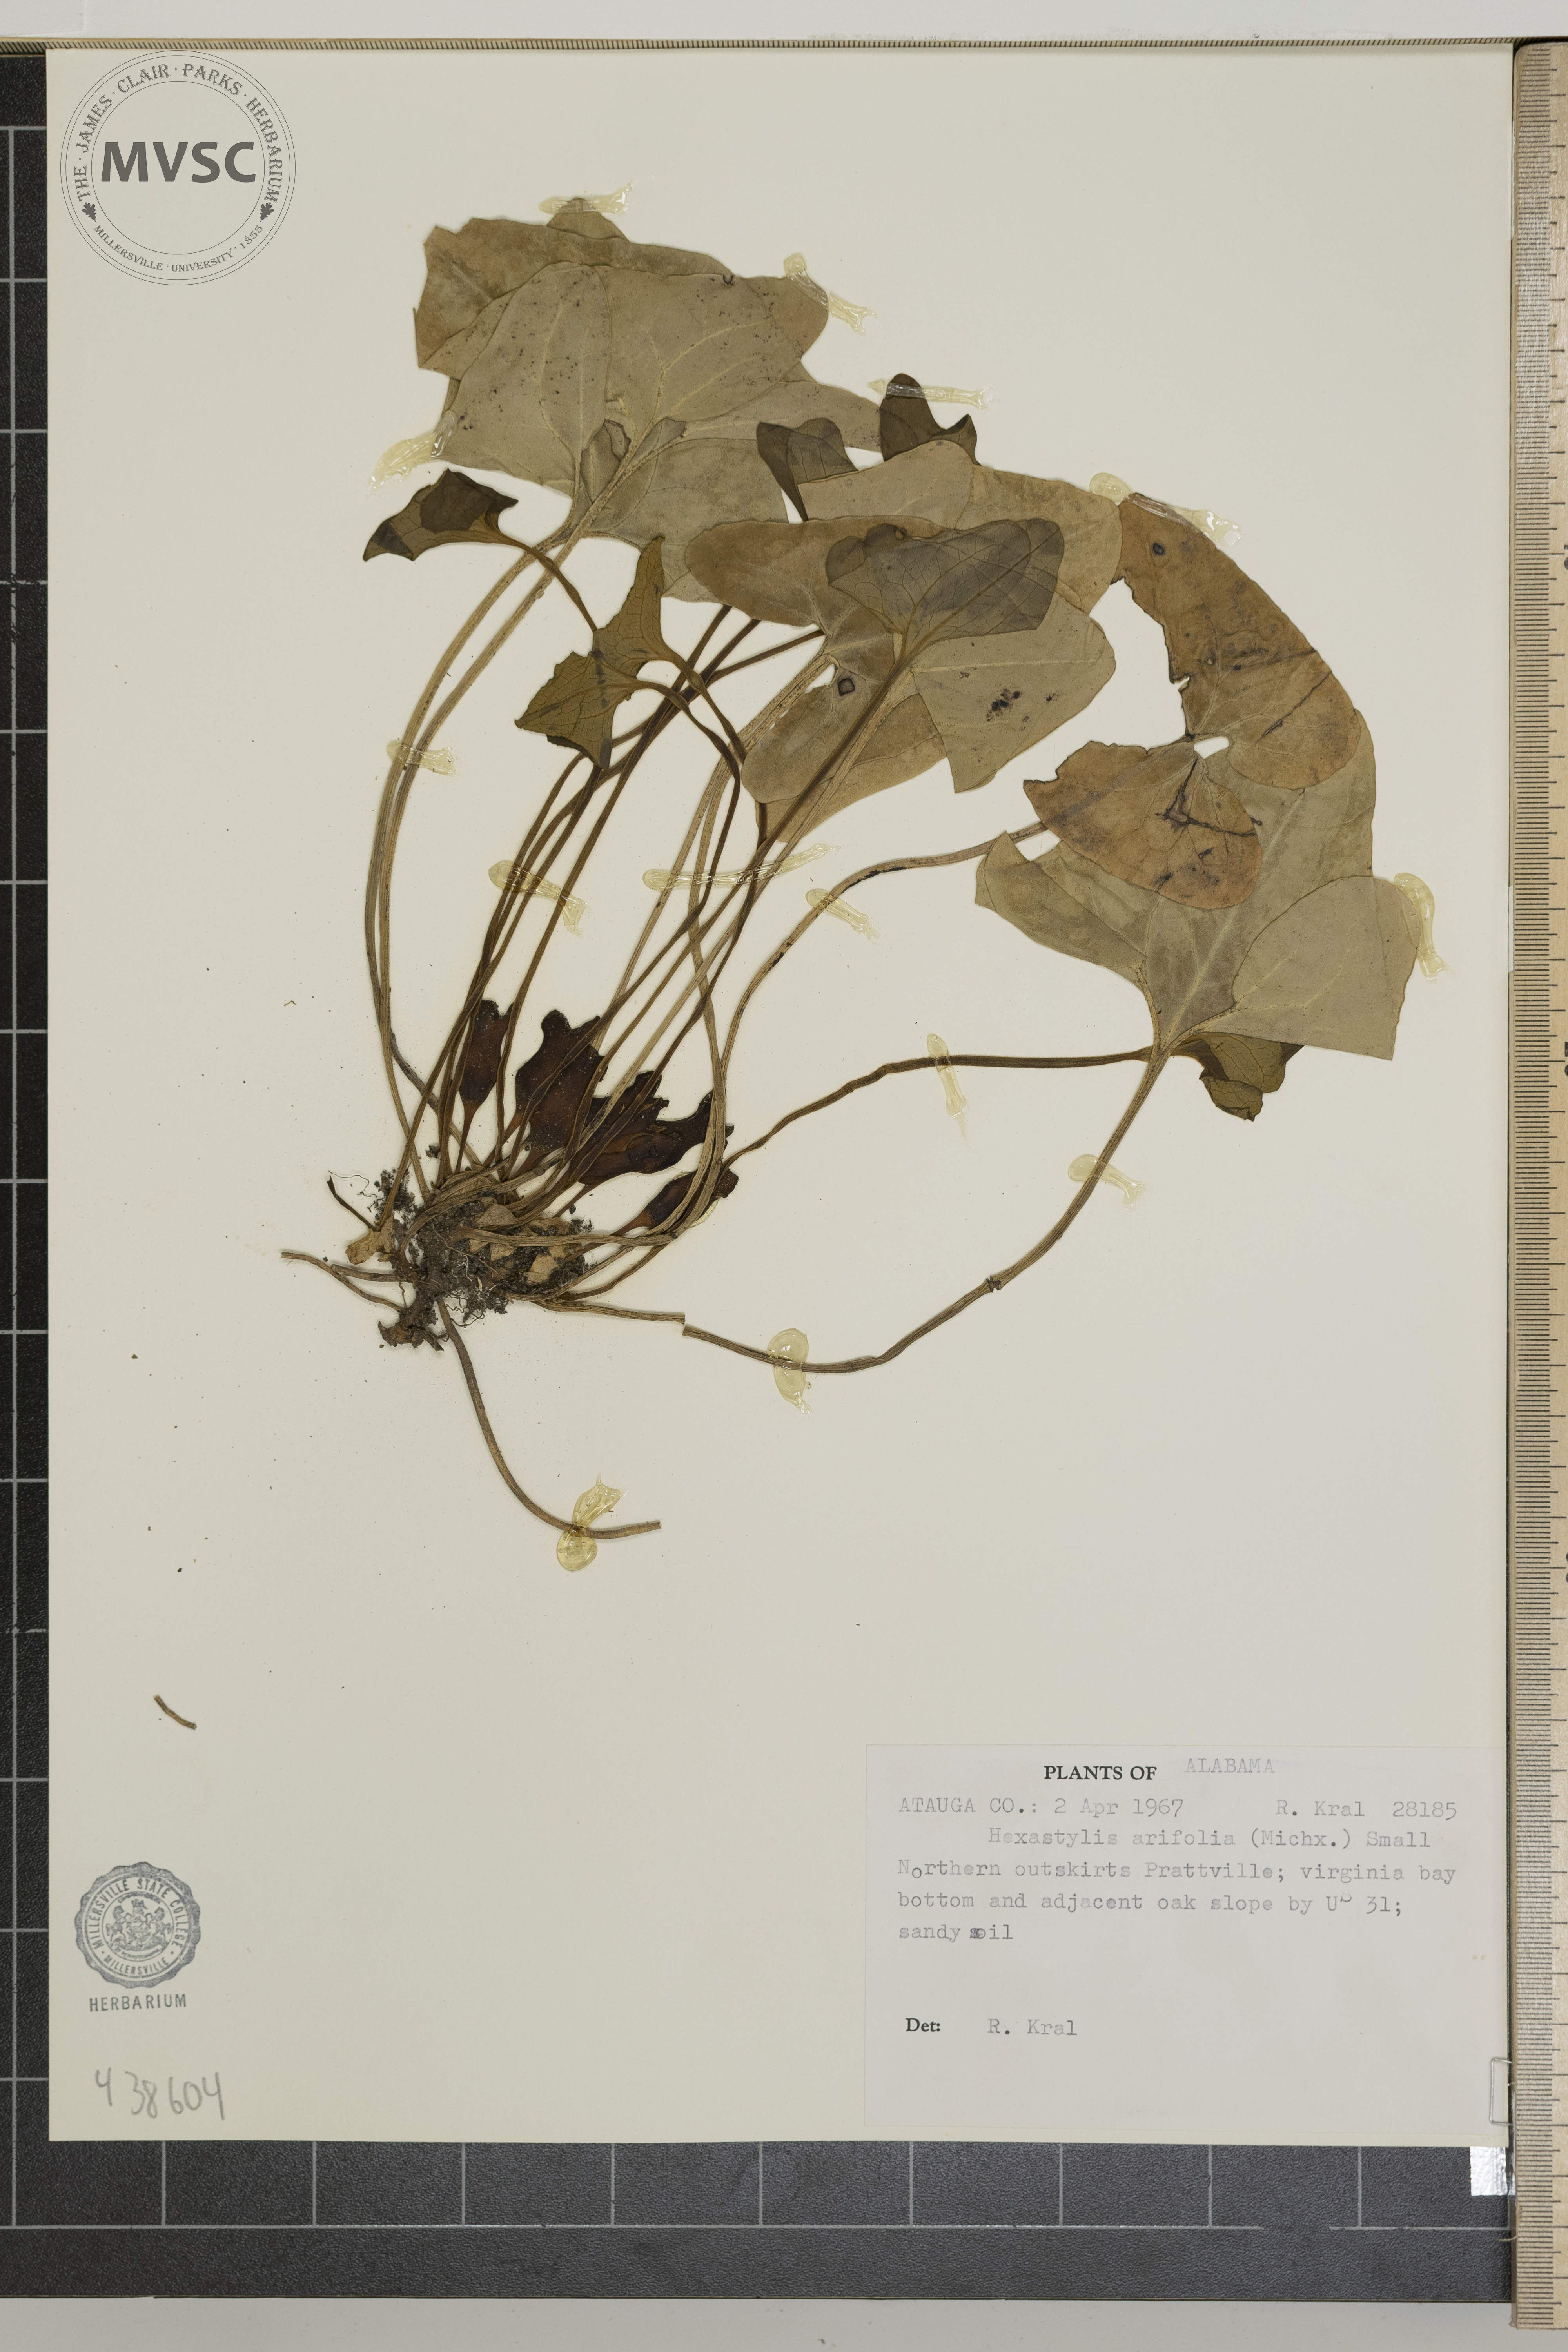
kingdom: Plantae
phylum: Tracheophyta
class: Magnoliopsida
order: Piperales
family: Aristolochiaceae
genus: Hexastylis
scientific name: Hexastylis arifolia
